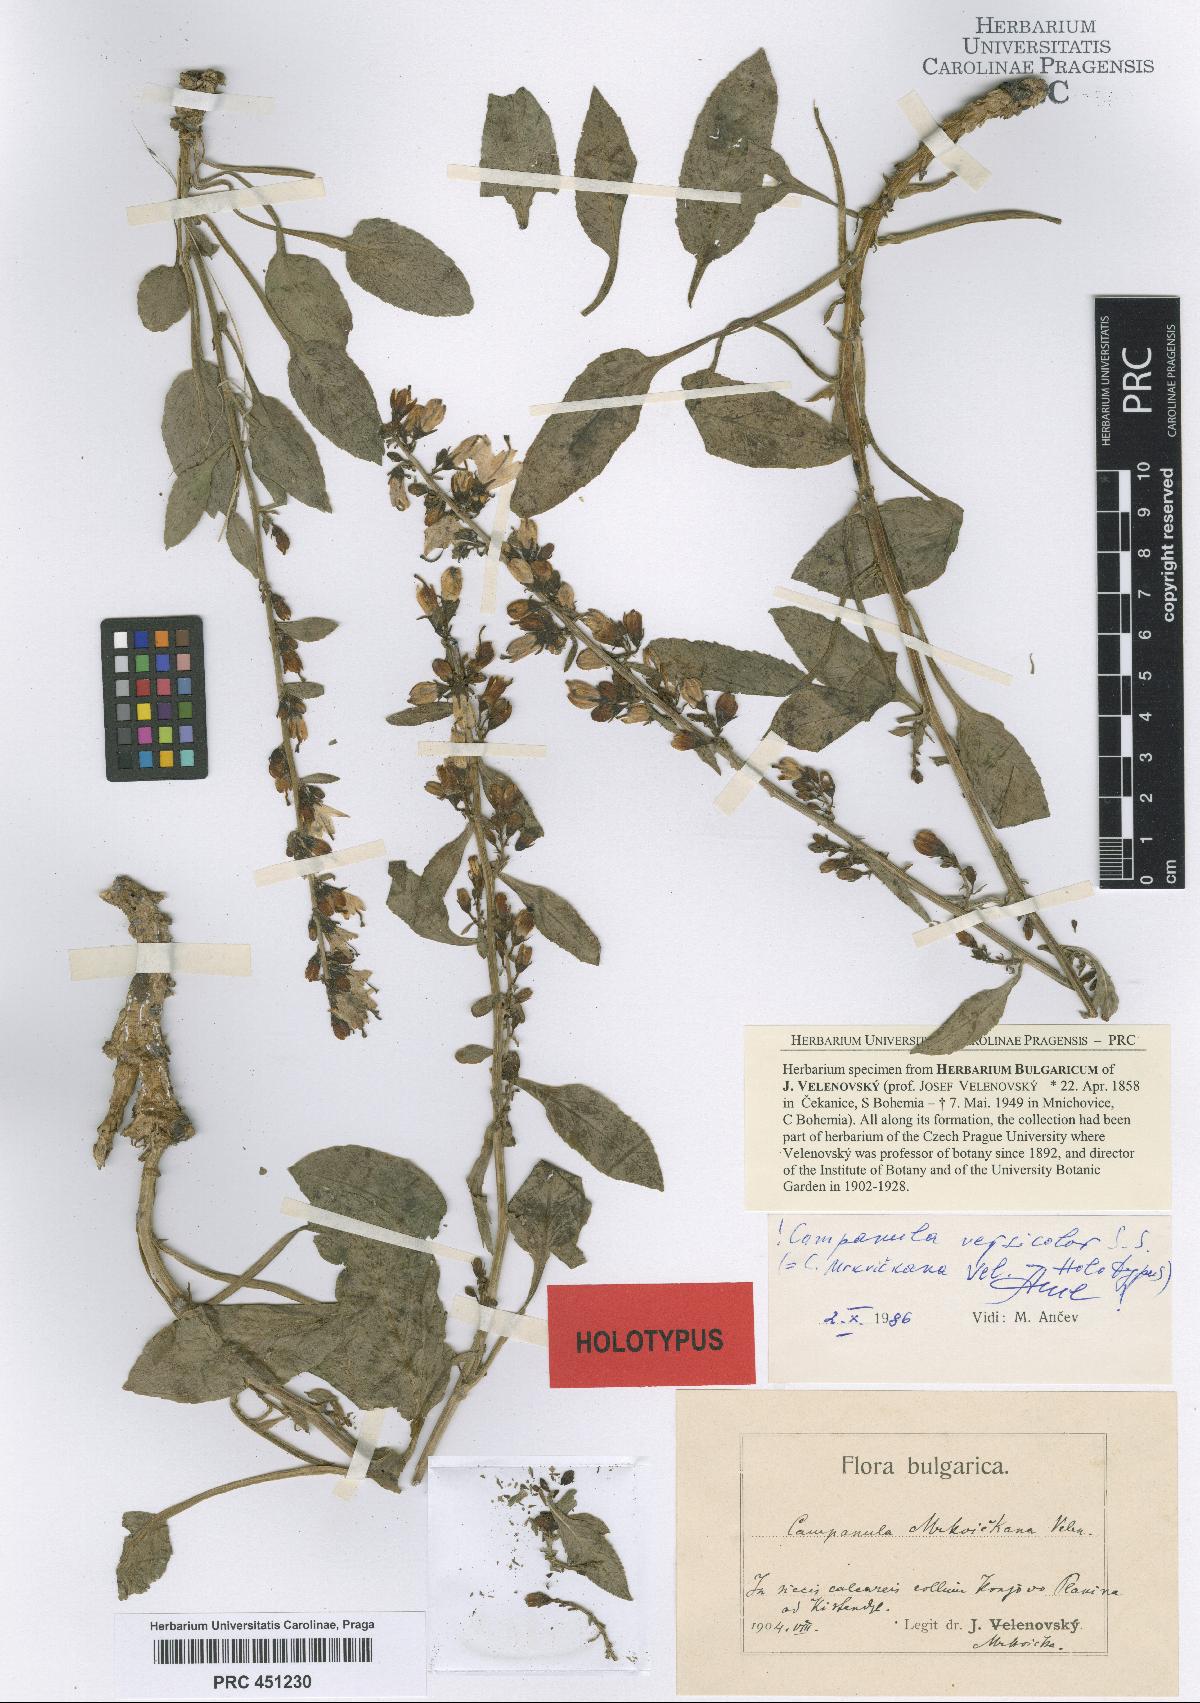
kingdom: Plantae
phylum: Tracheophyta
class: Magnoliopsida
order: Asterales
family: Campanulaceae
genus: Campanula
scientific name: Campanula versicolor
